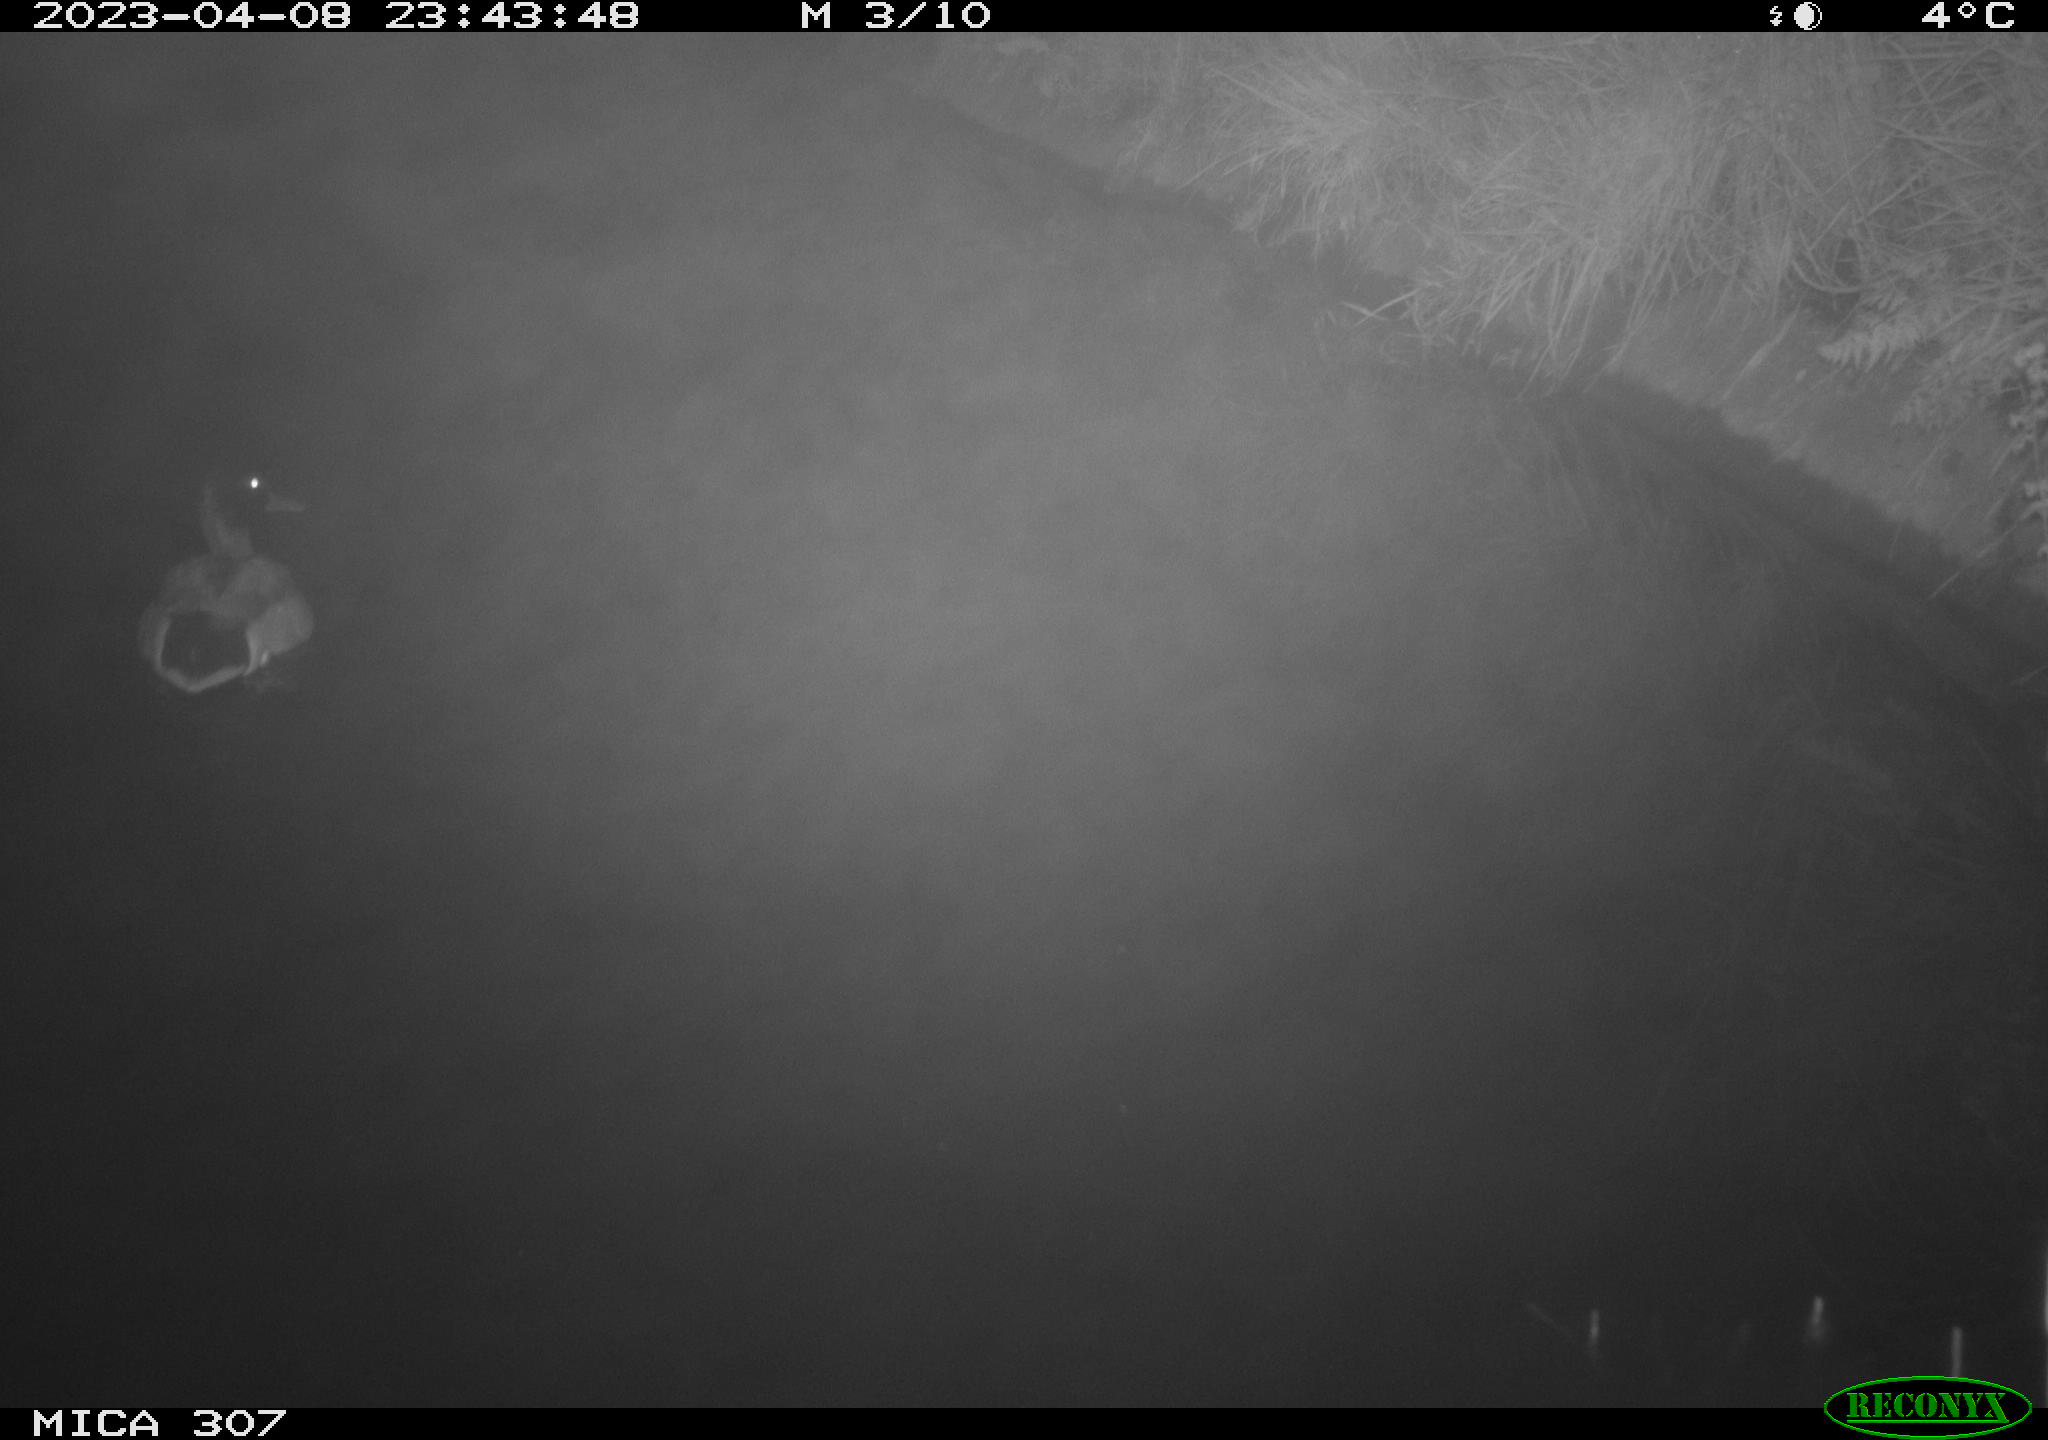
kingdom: Animalia
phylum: Chordata
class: Aves
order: Anseriformes
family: Anatidae
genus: Anas
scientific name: Anas
